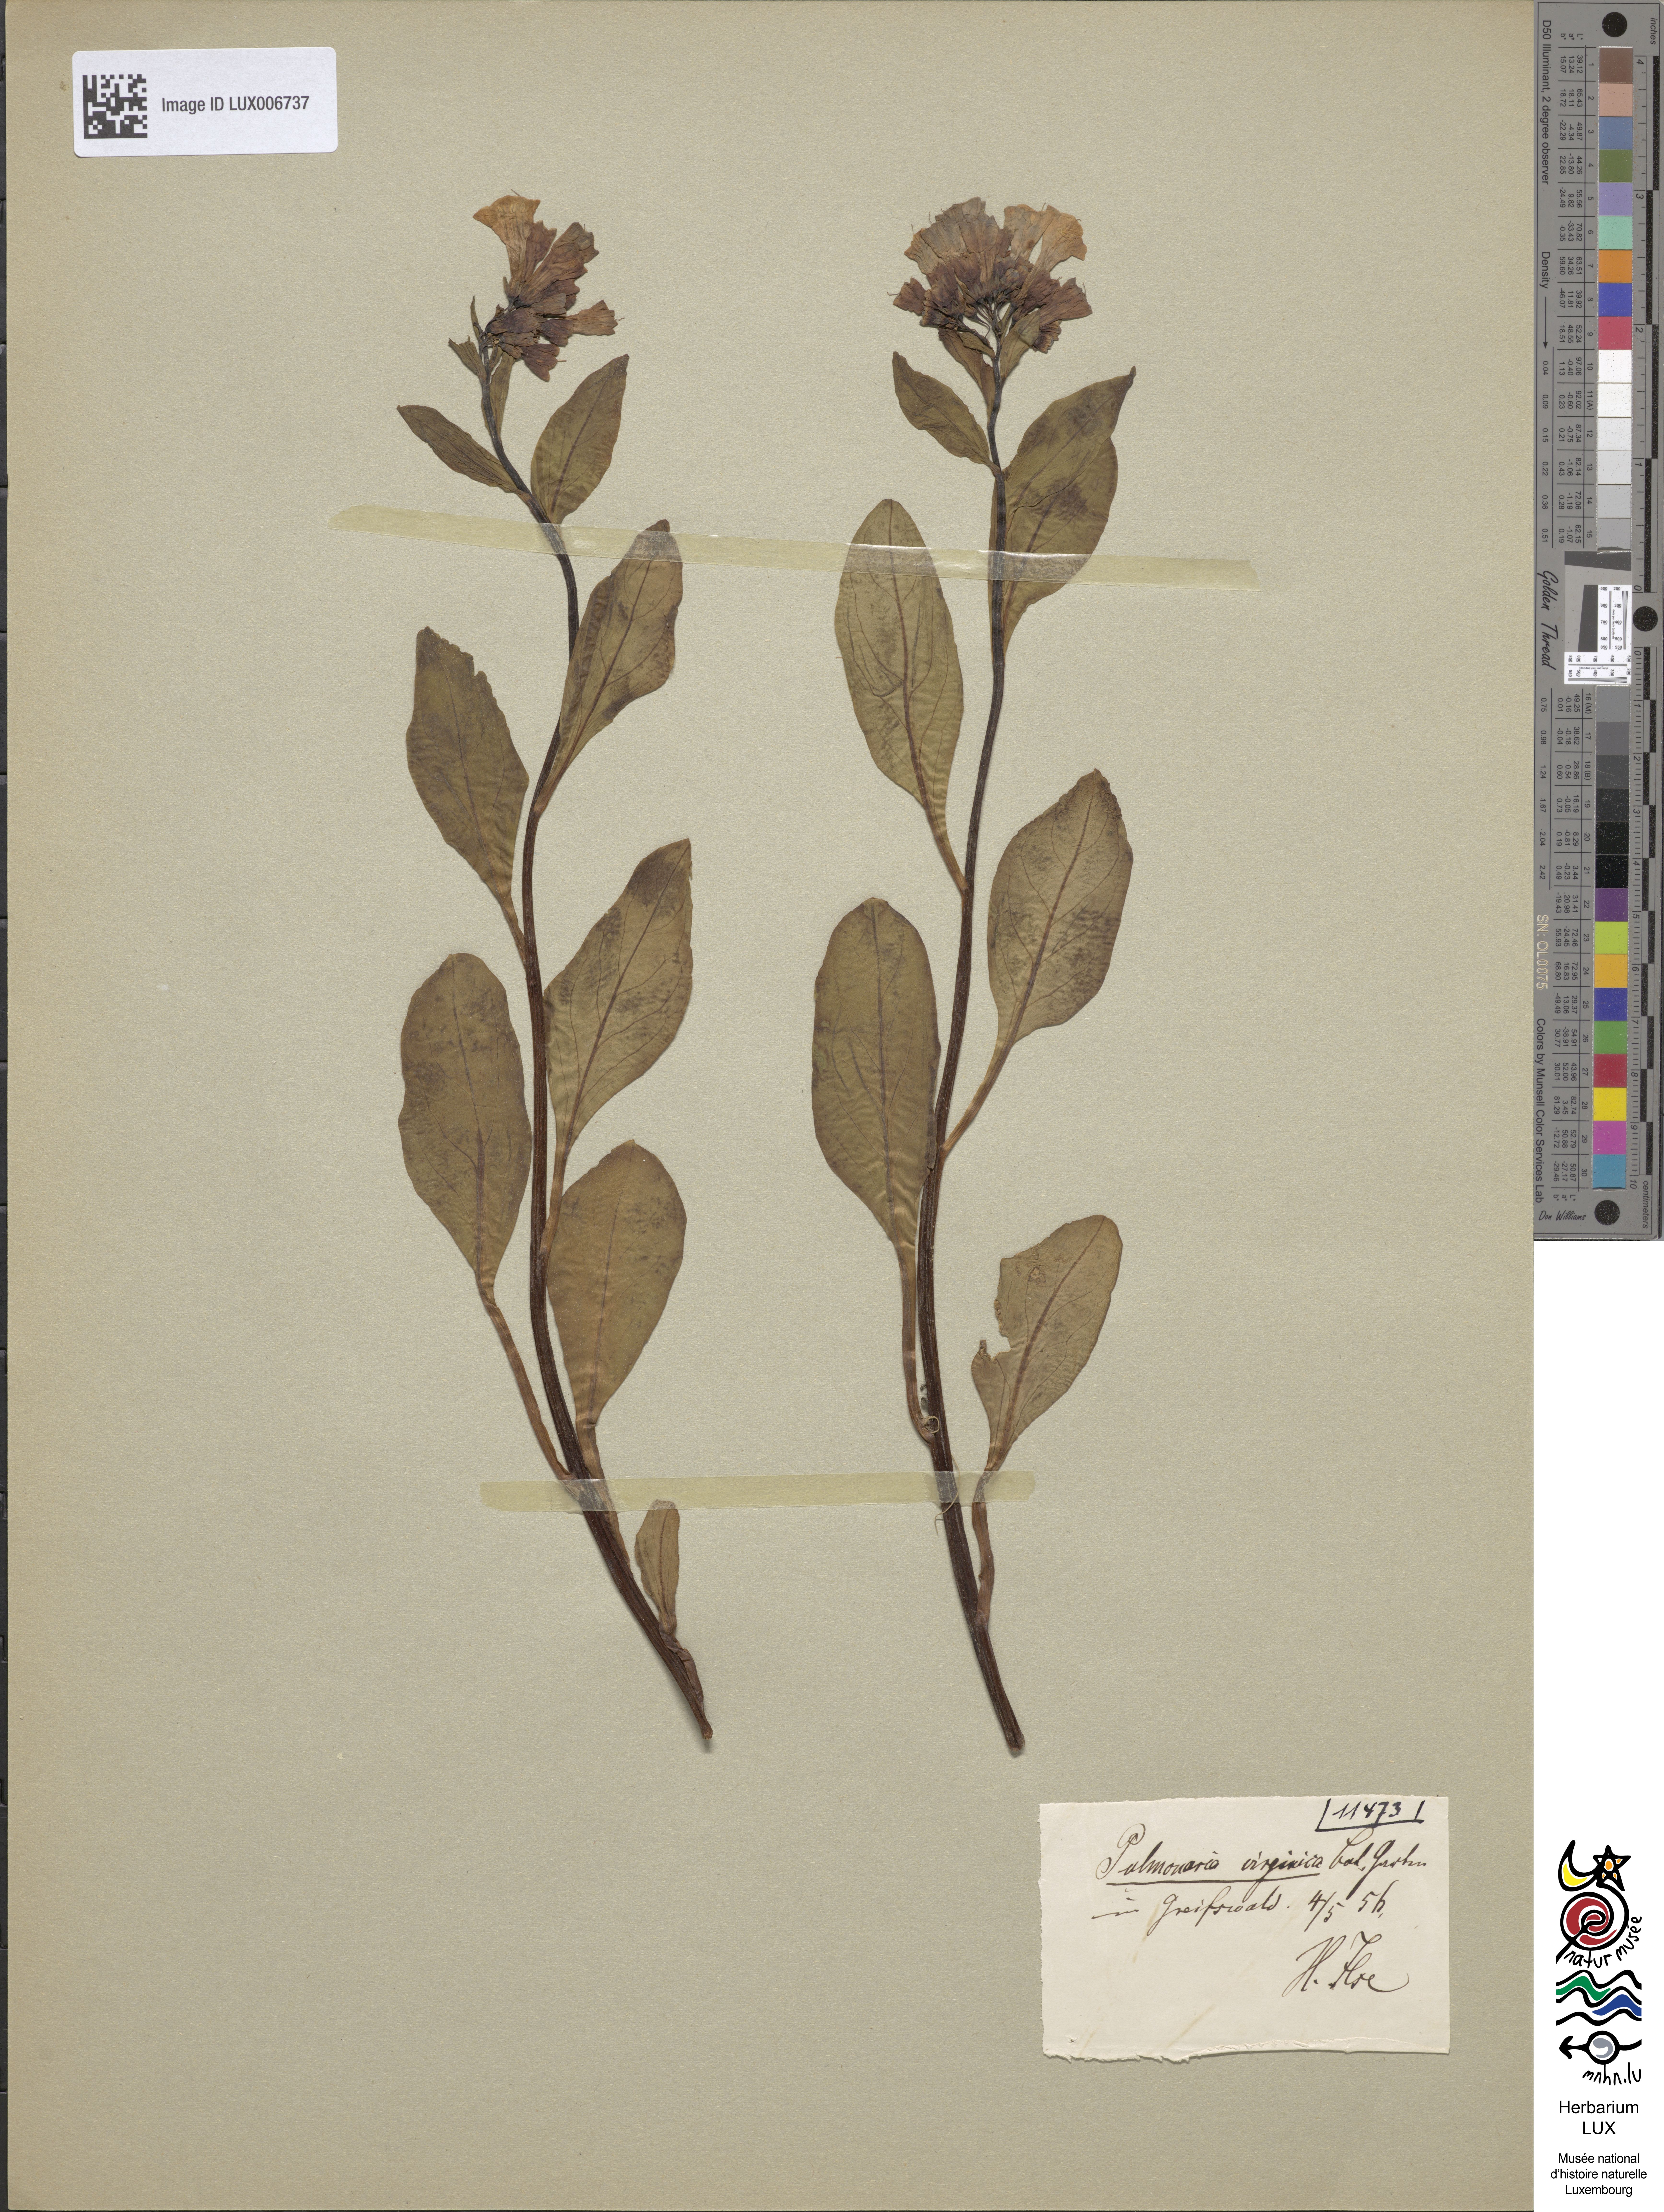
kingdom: Plantae
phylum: Tracheophyta
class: Magnoliopsida
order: Boraginales
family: Boraginaceae
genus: Mertensia
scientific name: Mertensia virginica
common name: Virginia bluebells
